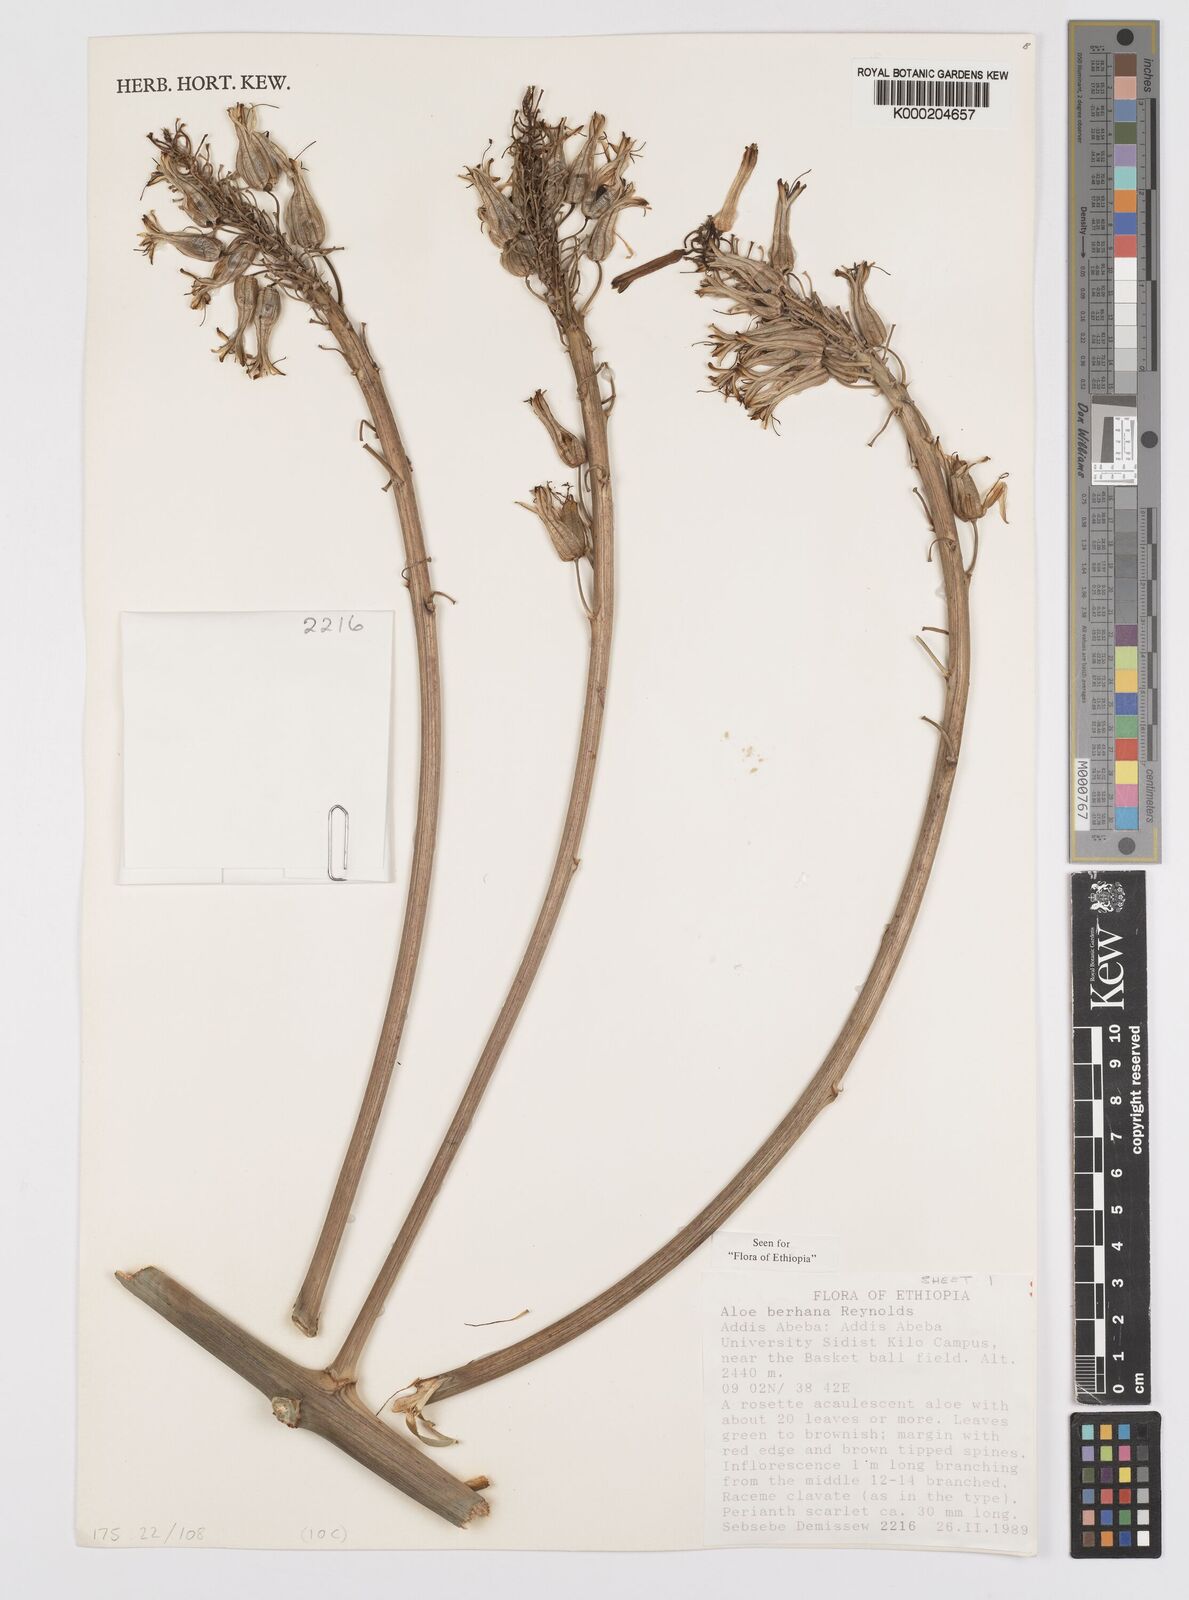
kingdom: Plantae
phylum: Tracheophyta
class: Liliopsida
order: Asparagales
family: Asphodelaceae
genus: Aloe
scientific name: Aloe debrana
